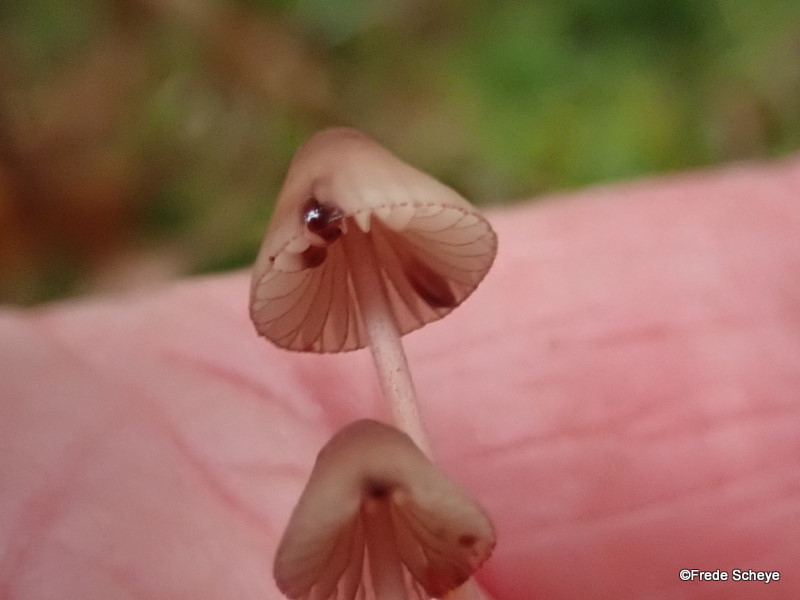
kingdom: Fungi
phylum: Basidiomycota
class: Agaricomycetes
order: Agaricales
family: Mycenaceae
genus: Mycena
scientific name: Mycena sanguinolenta
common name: rødmælket huesvamp
